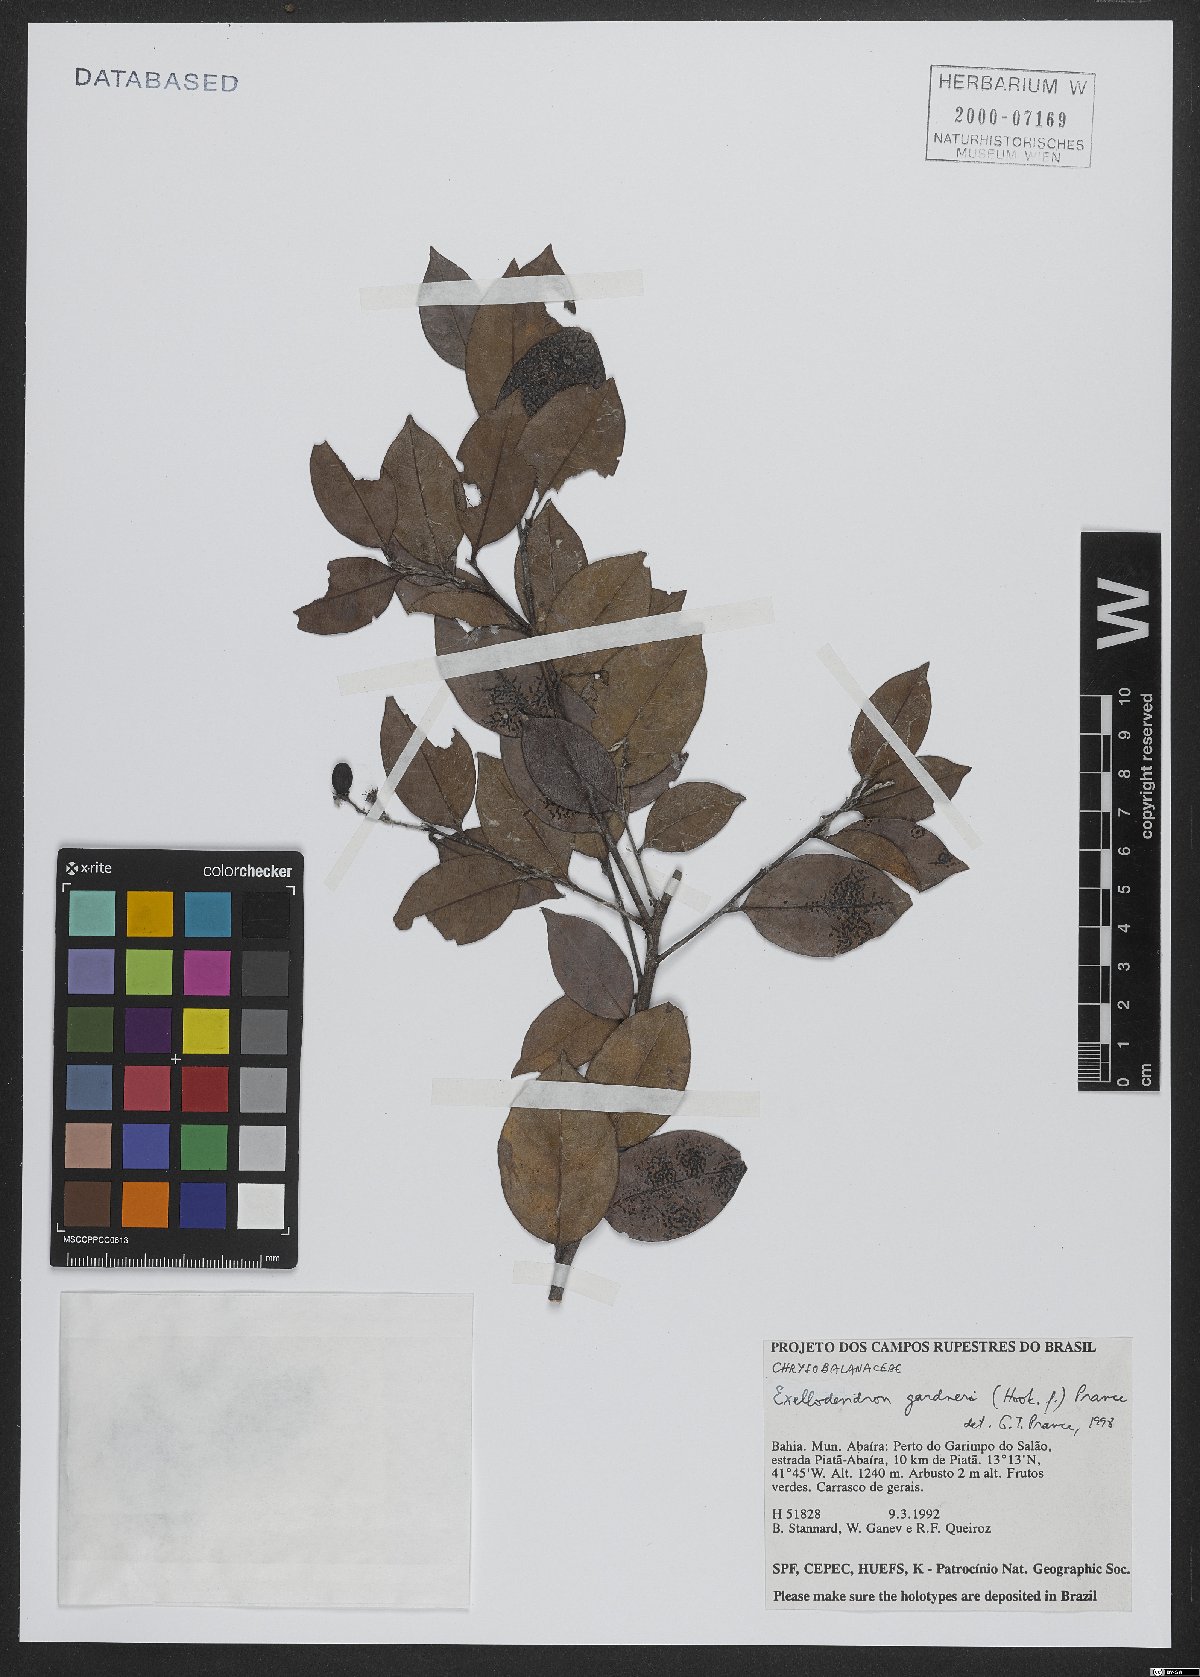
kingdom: Plantae
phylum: Tracheophyta
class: Magnoliopsida
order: Malpighiales
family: Chrysobalanaceae
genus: Exellodendron
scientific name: Exellodendron gardneri
